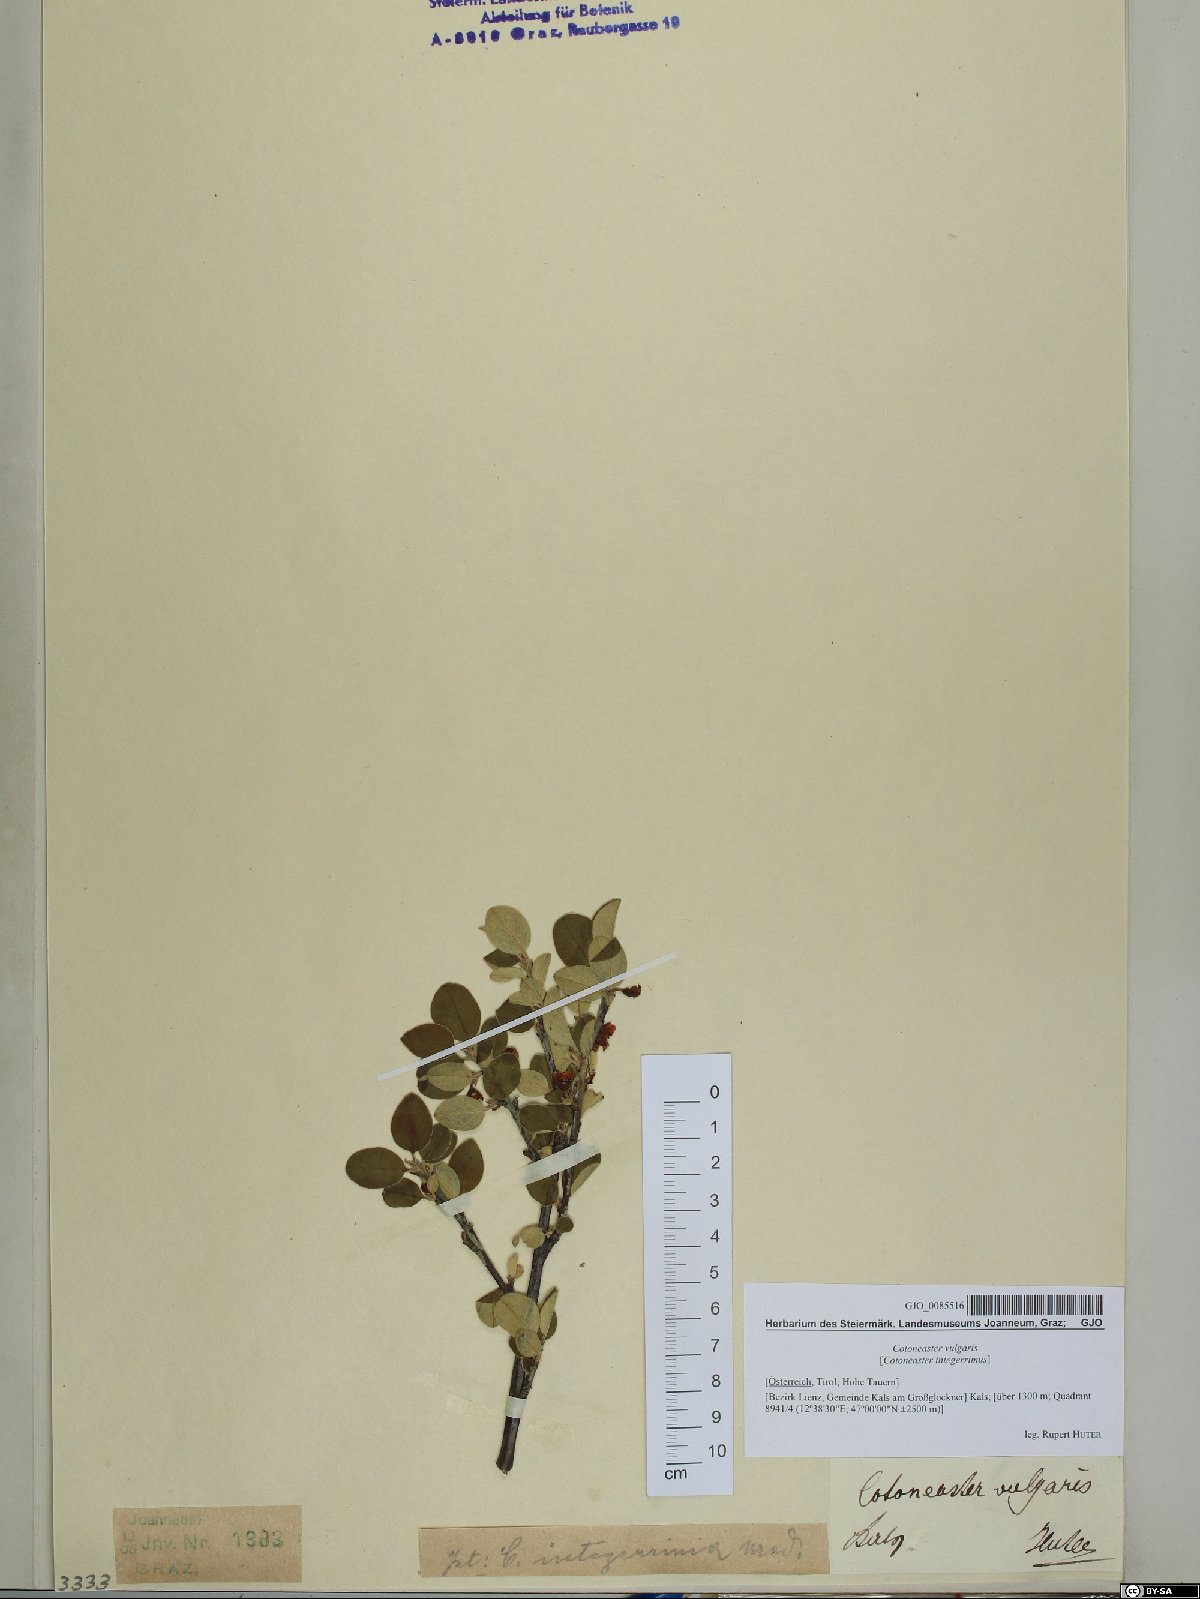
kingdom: Plantae
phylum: Tracheophyta
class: Magnoliopsida
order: Rosales
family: Rosaceae
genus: Cotoneaster
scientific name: Cotoneaster integerrimus
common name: Wild cotoneaster
